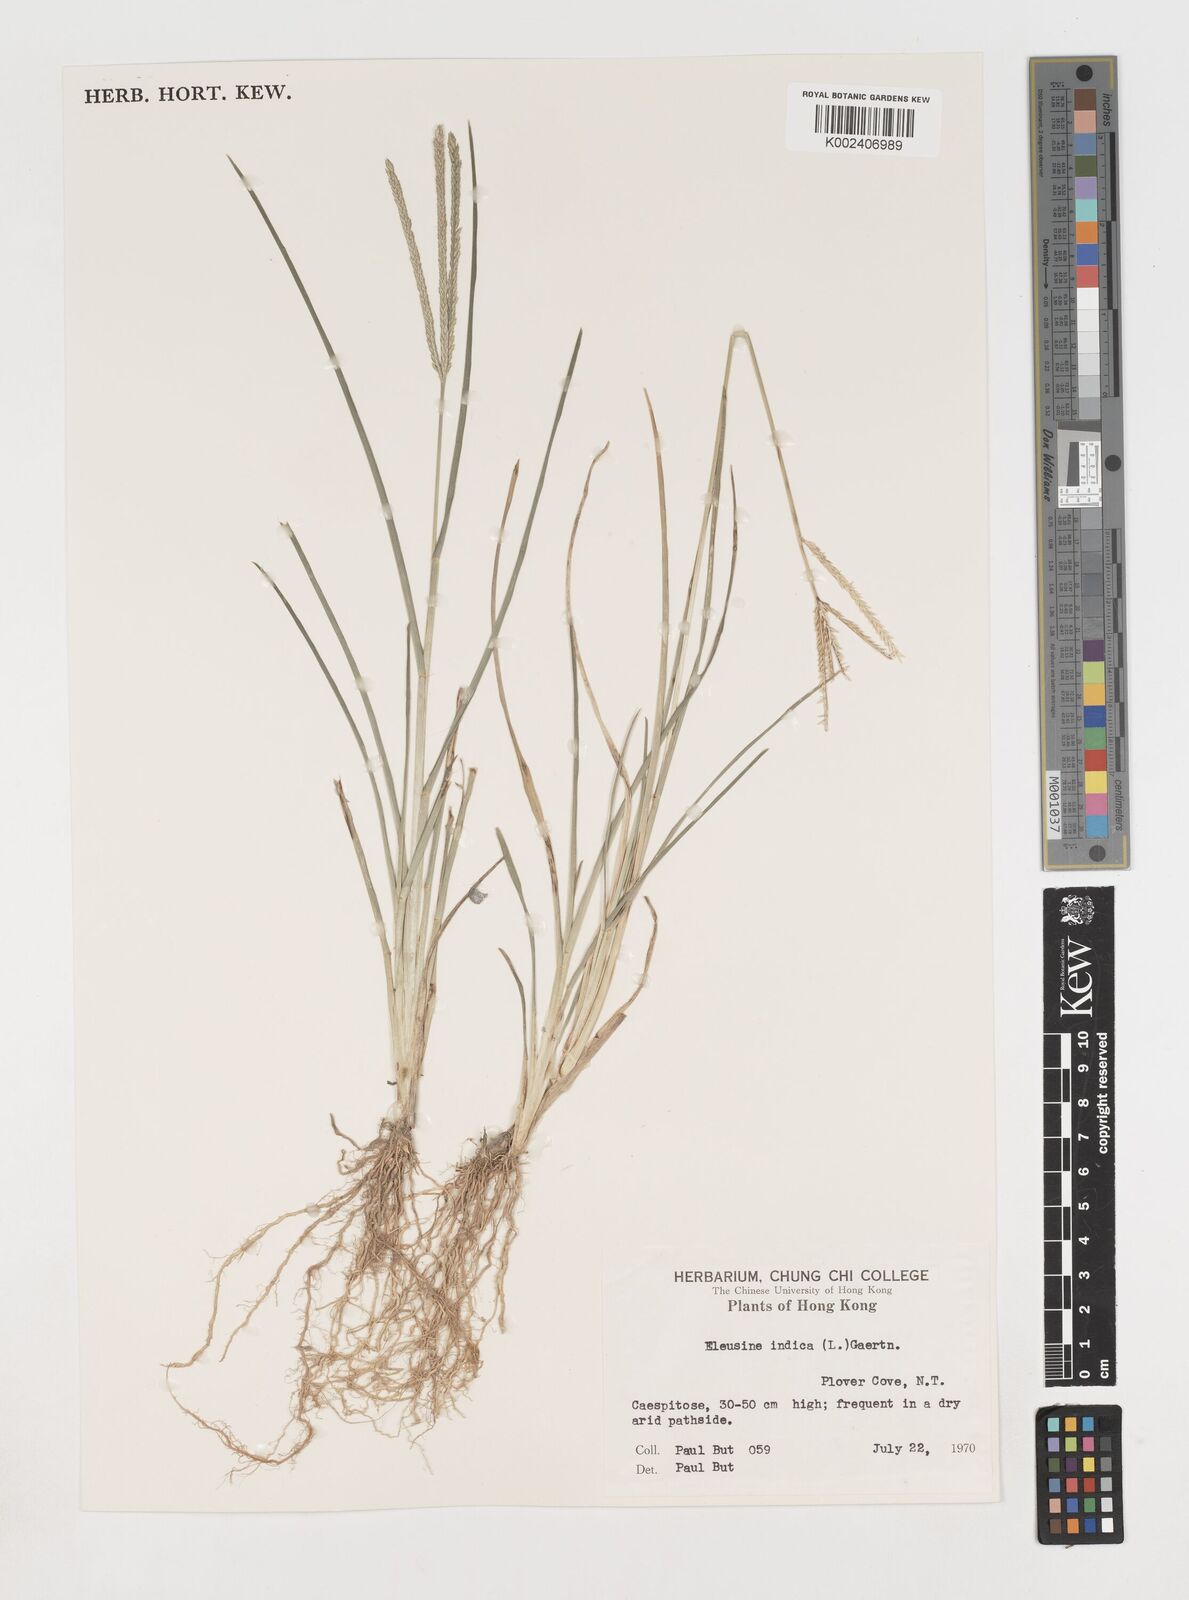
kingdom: Plantae
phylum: Tracheophyta
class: Liliopsida
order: Poales
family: Poaceae
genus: Eleusine
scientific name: Eleusine indica
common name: Yard-grass
